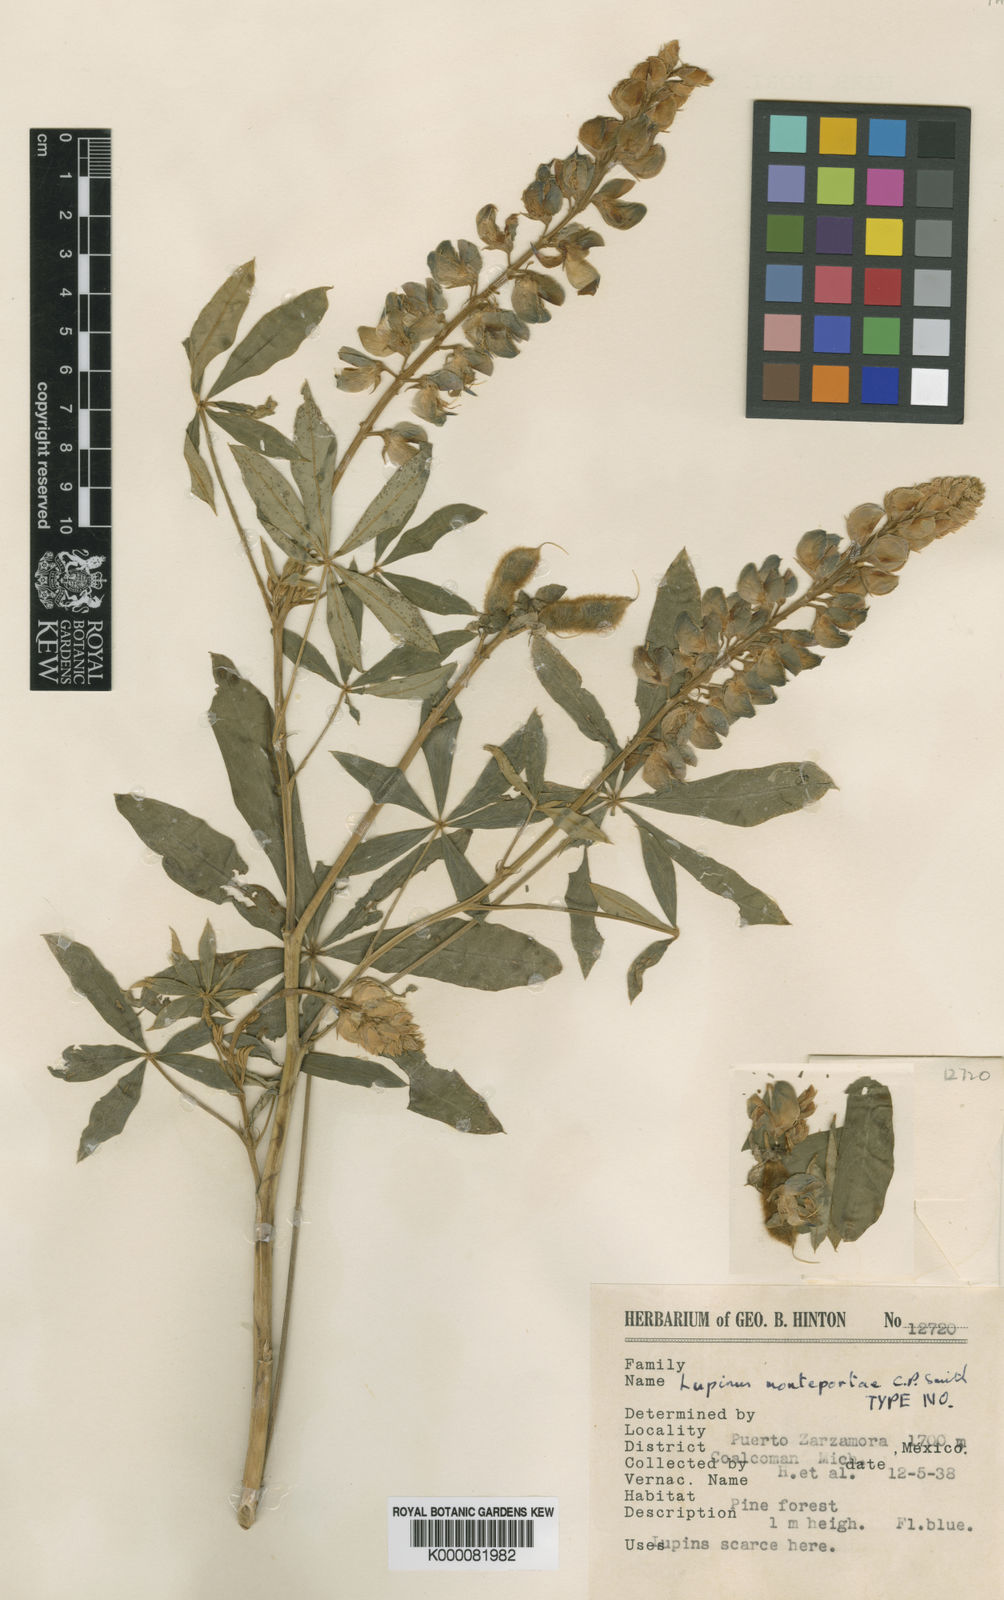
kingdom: Plantae
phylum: Tracheophyta
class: Magnoliopsida
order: Fabales
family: Fabaceae
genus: Lupinus
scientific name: Lupinus exaltatus
